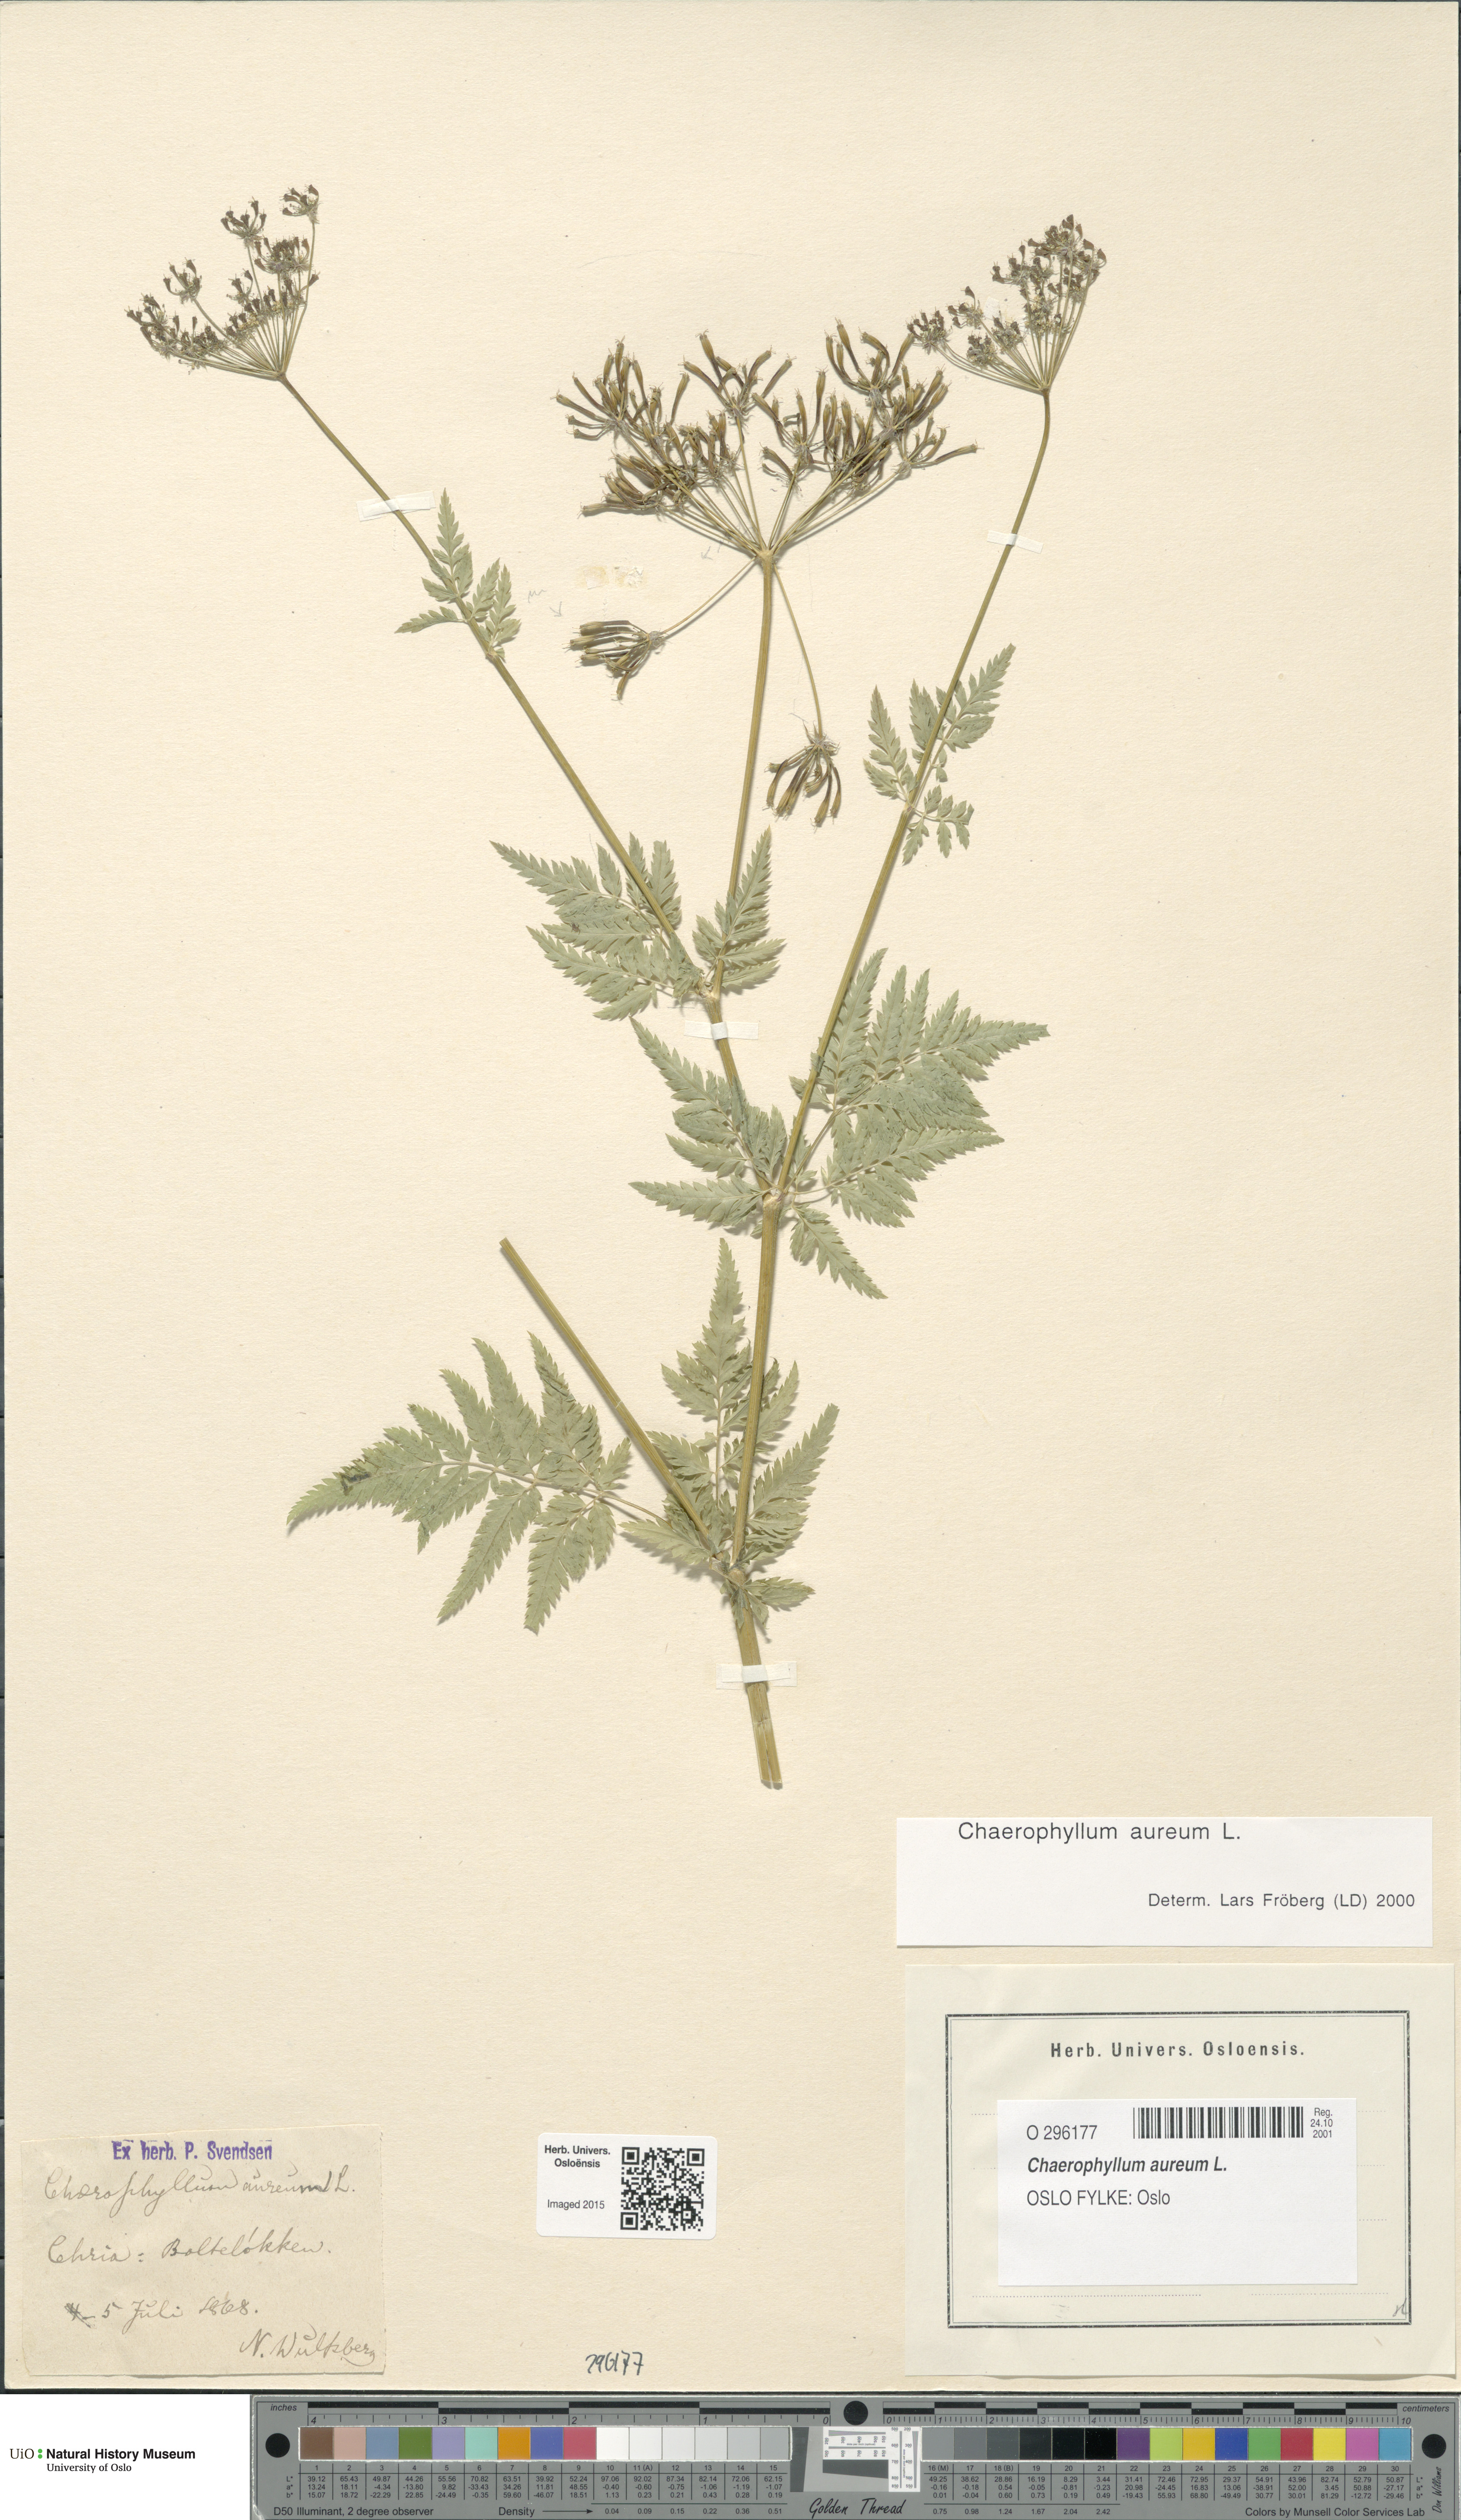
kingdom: Plantae
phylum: Tracheophyta
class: Magnoliopsida
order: Apiales
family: Apiaceae
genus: Chaerophyllum
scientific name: Chaerophyllum aureum
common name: Golden chervil
